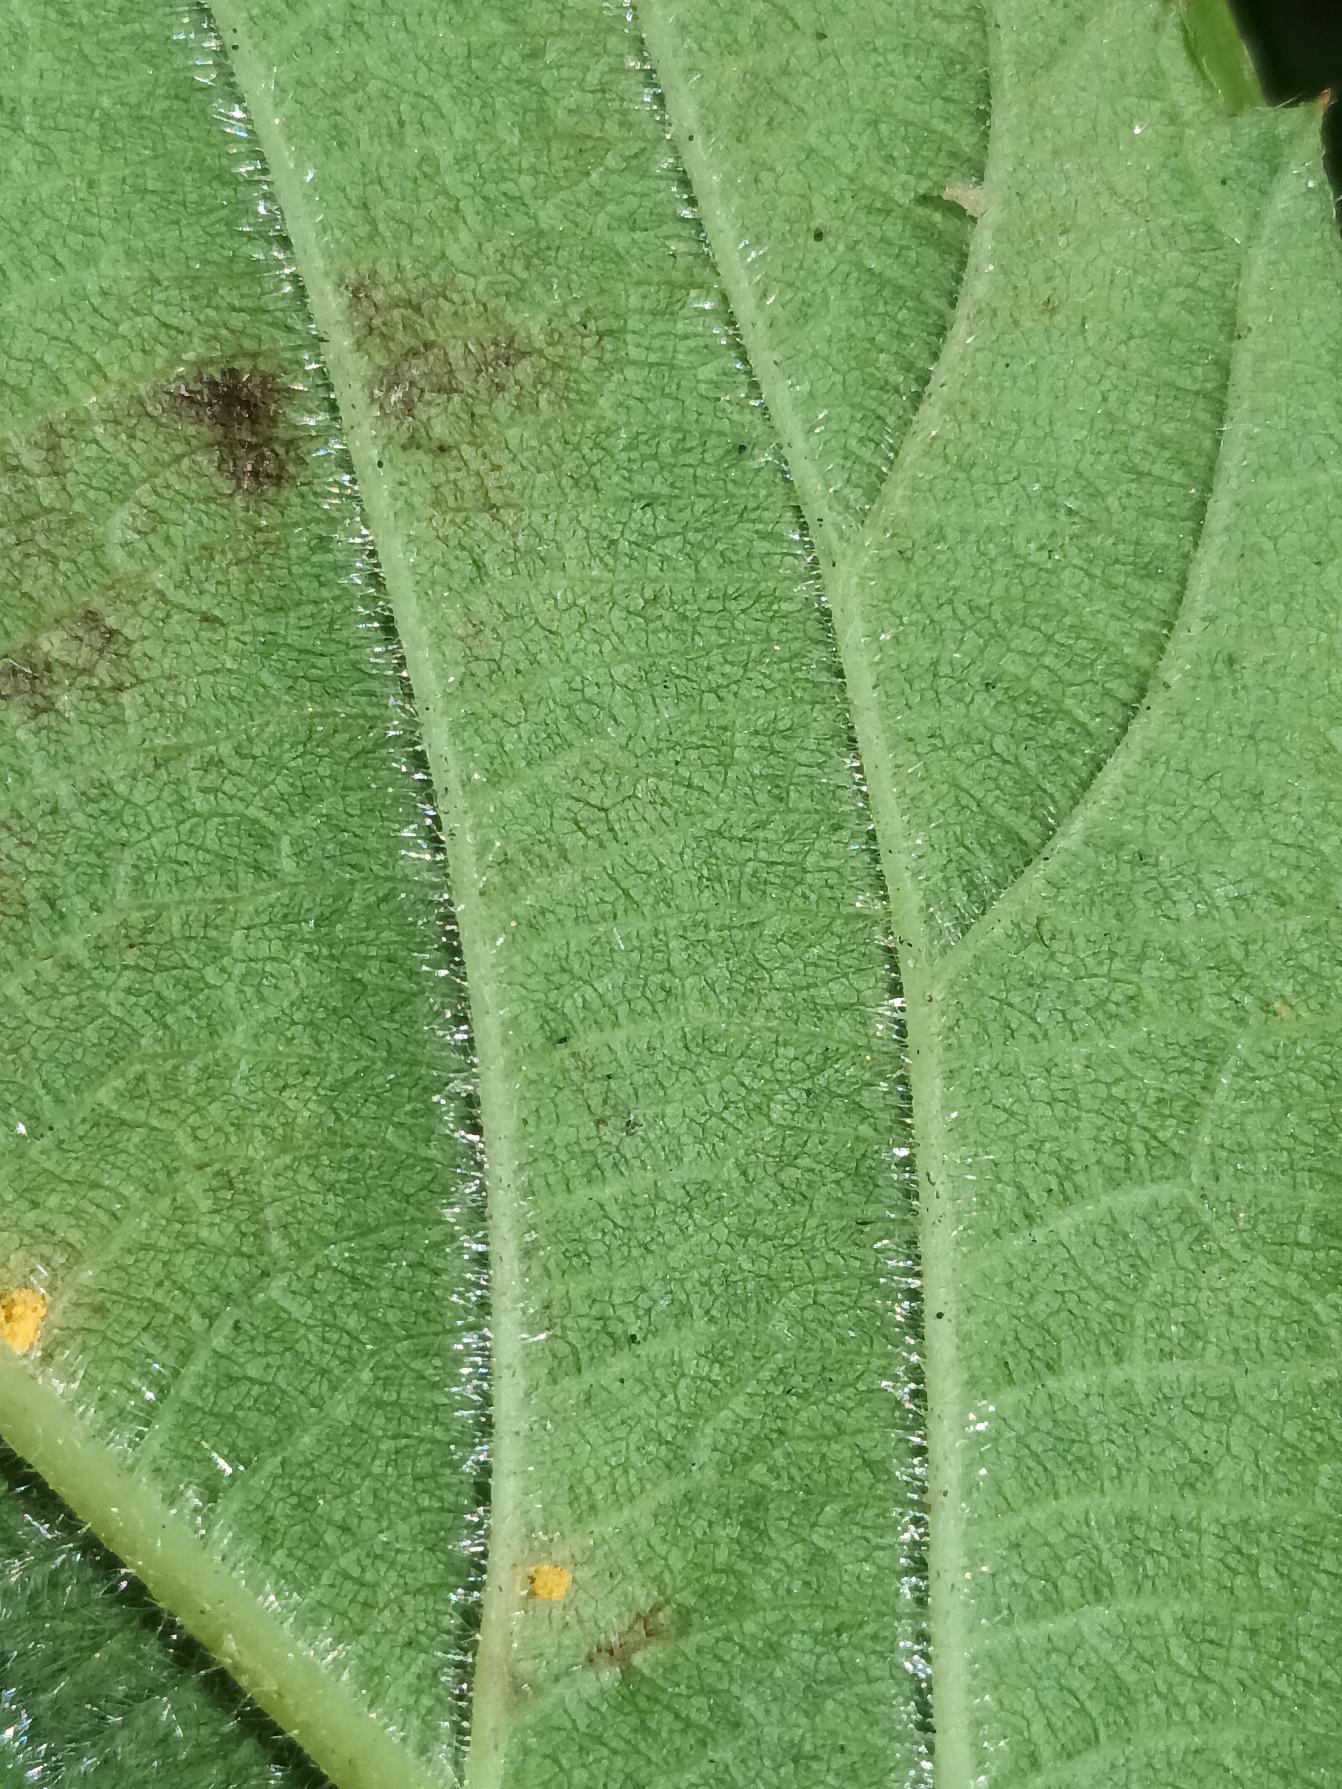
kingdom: Plantae
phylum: Tracheophyta
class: Magnoliopsida
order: Rosales
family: Rosaceae
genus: Rubus
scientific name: Rubus umbrosus
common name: Pyramide-brombær
